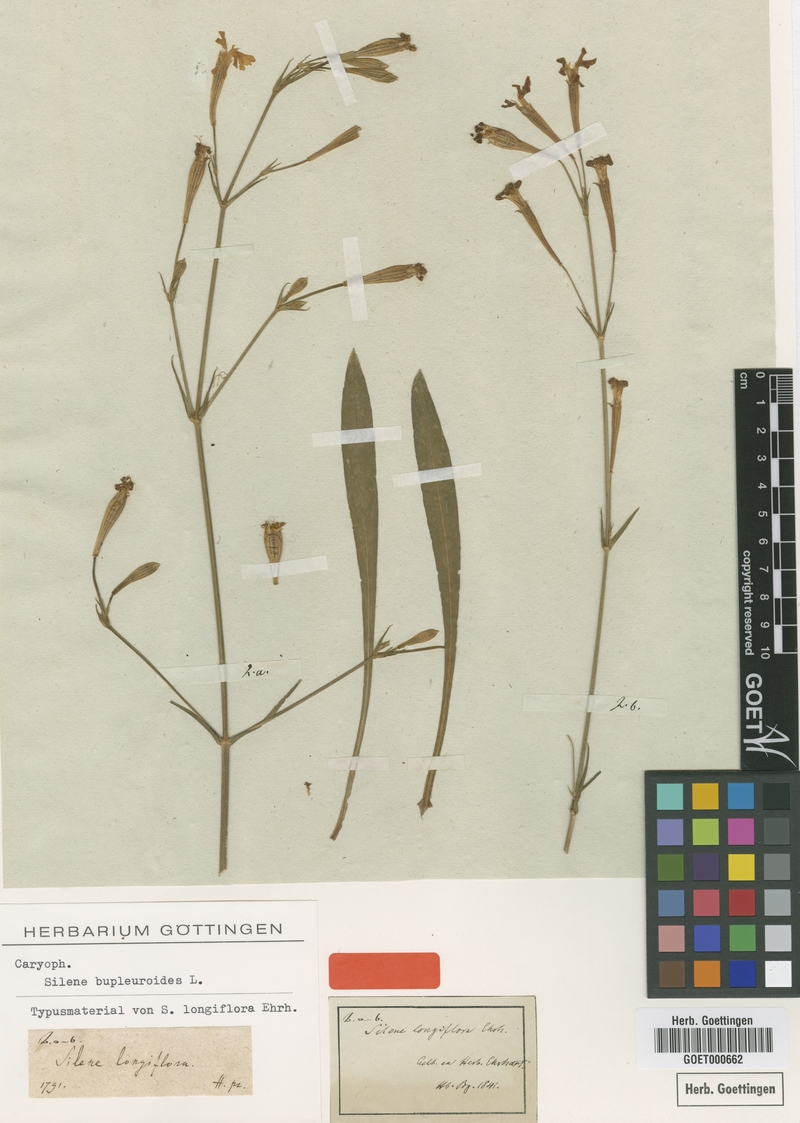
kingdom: Plantae
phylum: Tracheophyta
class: Magnoliopsida
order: Caryophyllales
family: Caryophyllaceae
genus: Silene
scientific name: Silene bupleuroides
